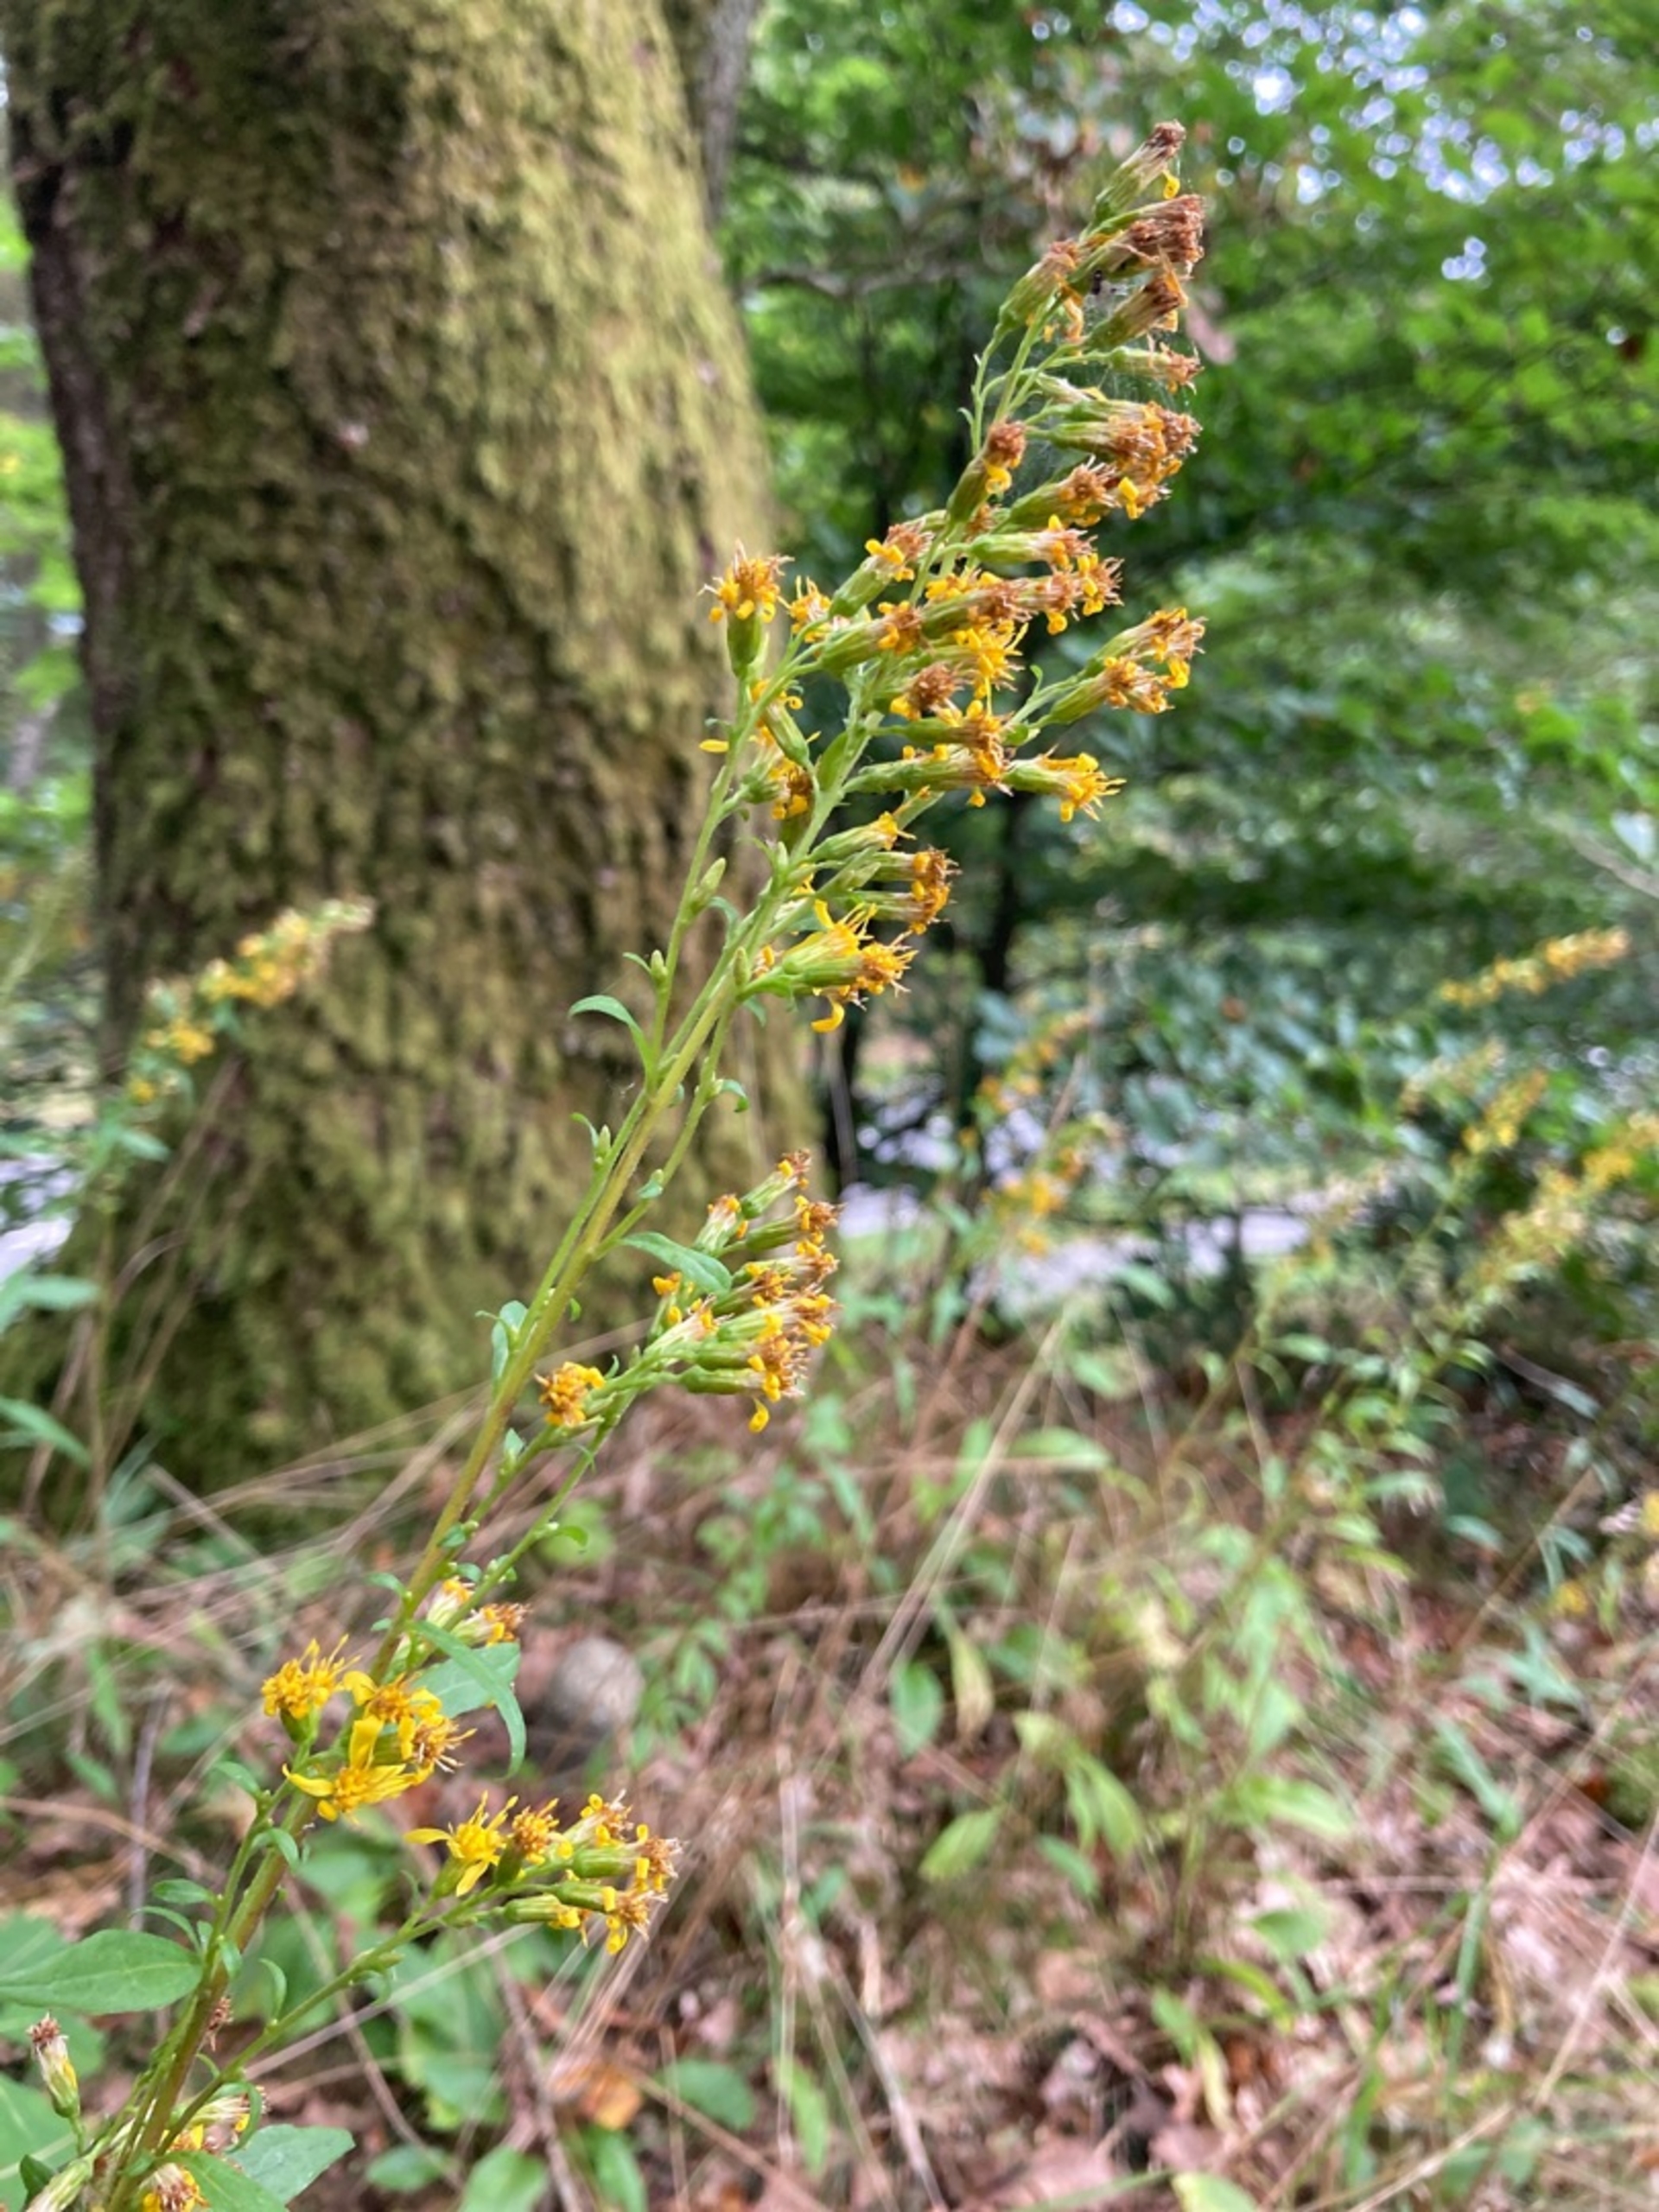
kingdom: Plantae
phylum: Tracheophyta
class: Magnoliopsida
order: Asterales
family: Asteraceae
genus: Solidago
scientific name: Solidago virgaurea
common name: Almindelig gyldenris
